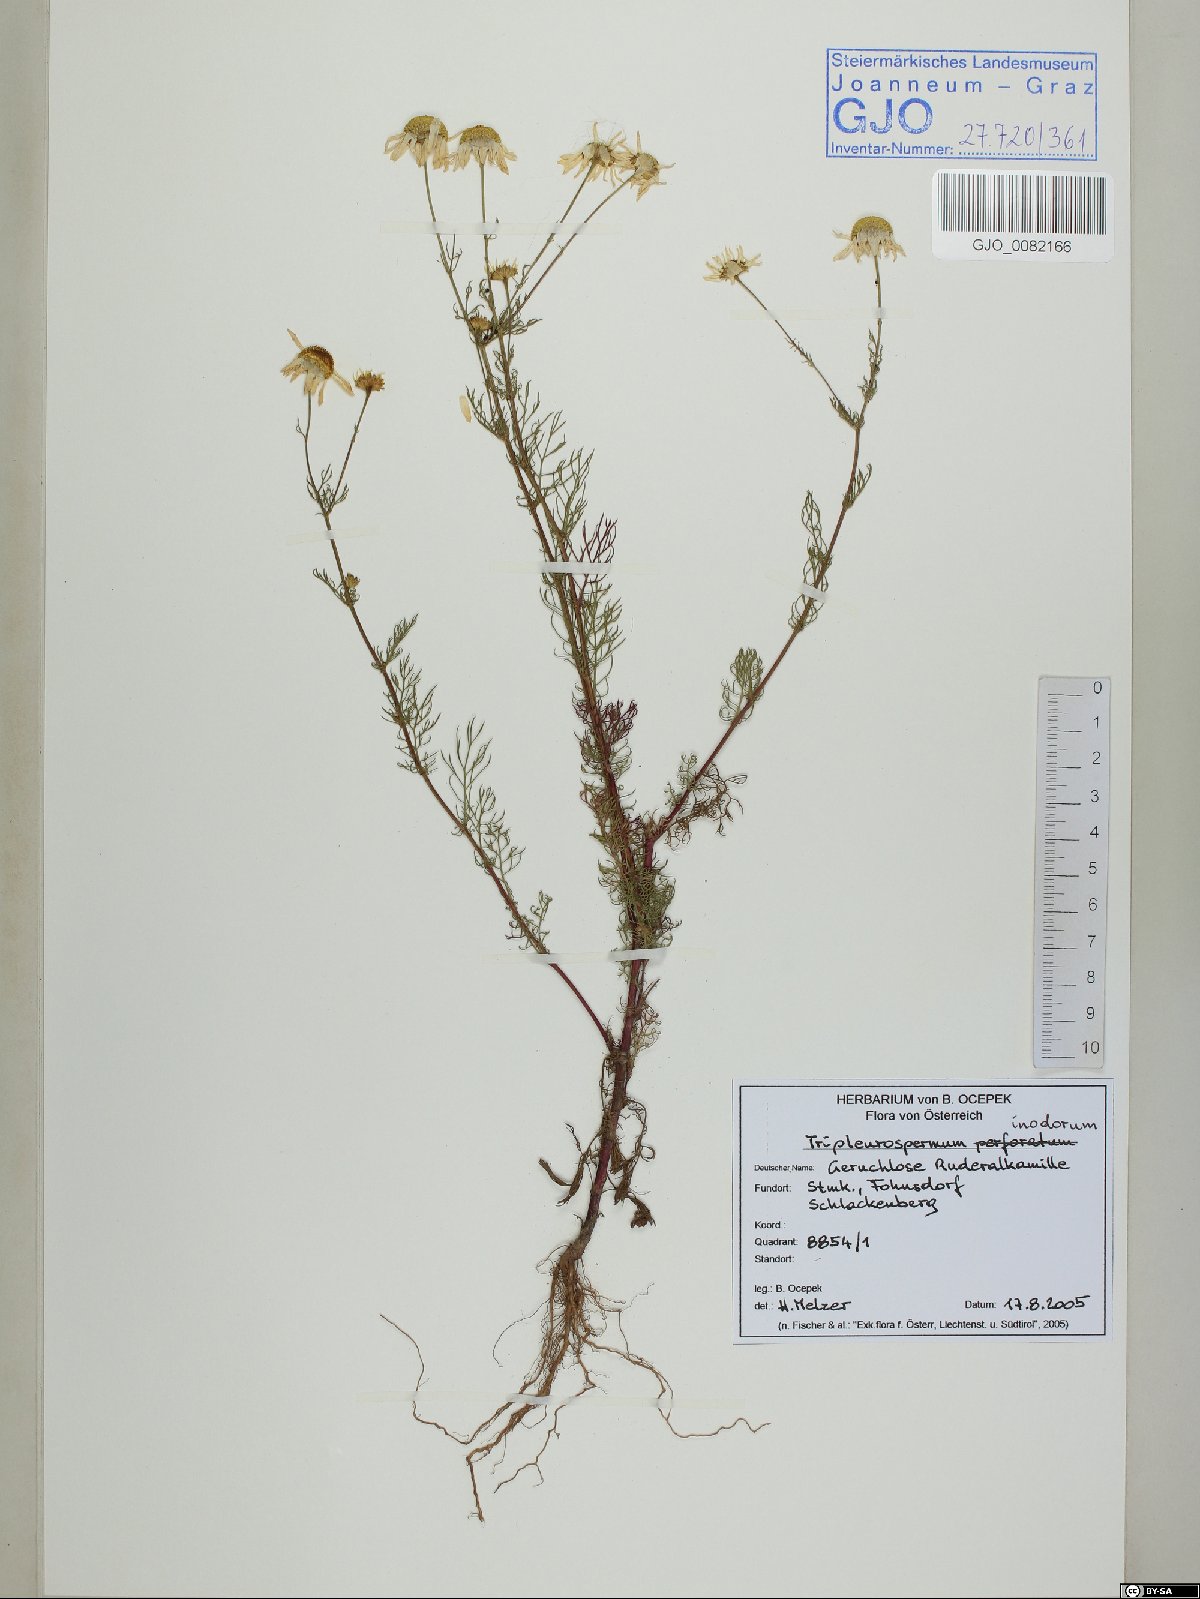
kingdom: Plantae
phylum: Tracheophyta
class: Magnoliopsida
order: Asterales
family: Asteraceae
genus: Tripleurospermum
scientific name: Tripleurospermum inodorum
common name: Scentless mayweed
